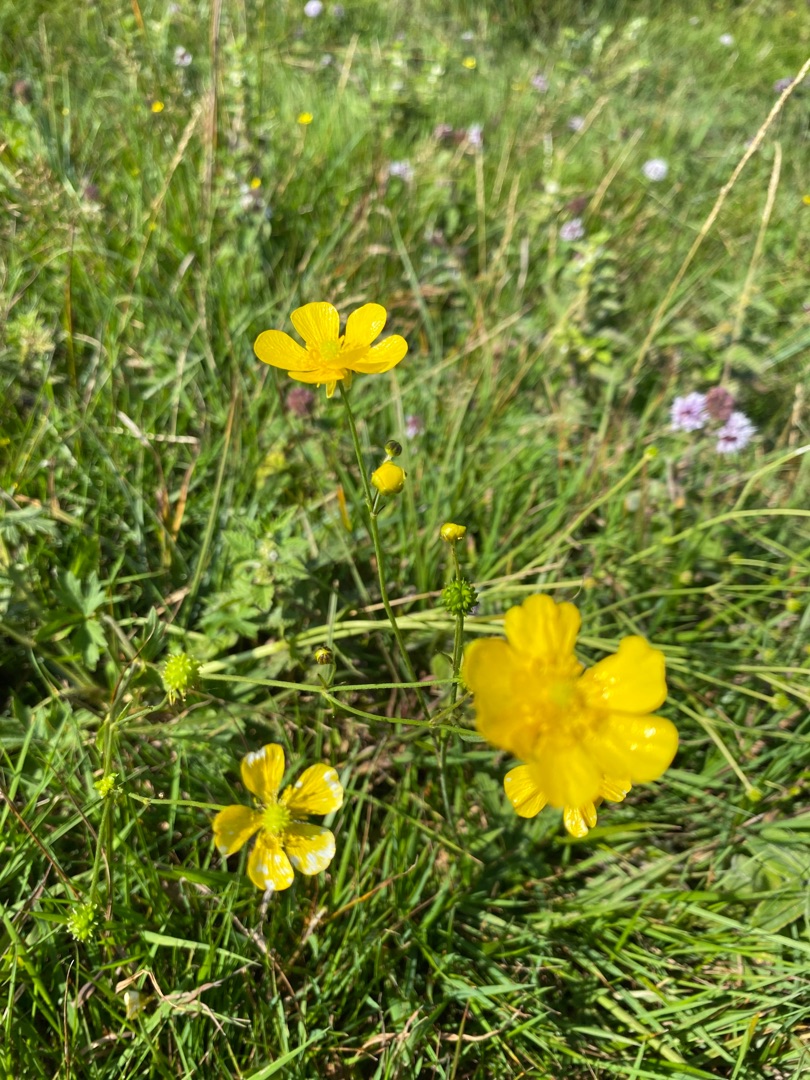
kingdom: Plantae
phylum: Tracheophyta
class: Magnoliopsida
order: Ranunculales
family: Ranunculaceae
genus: Ranunculus
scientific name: Ranunculus acris
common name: Bidende ranunkel
